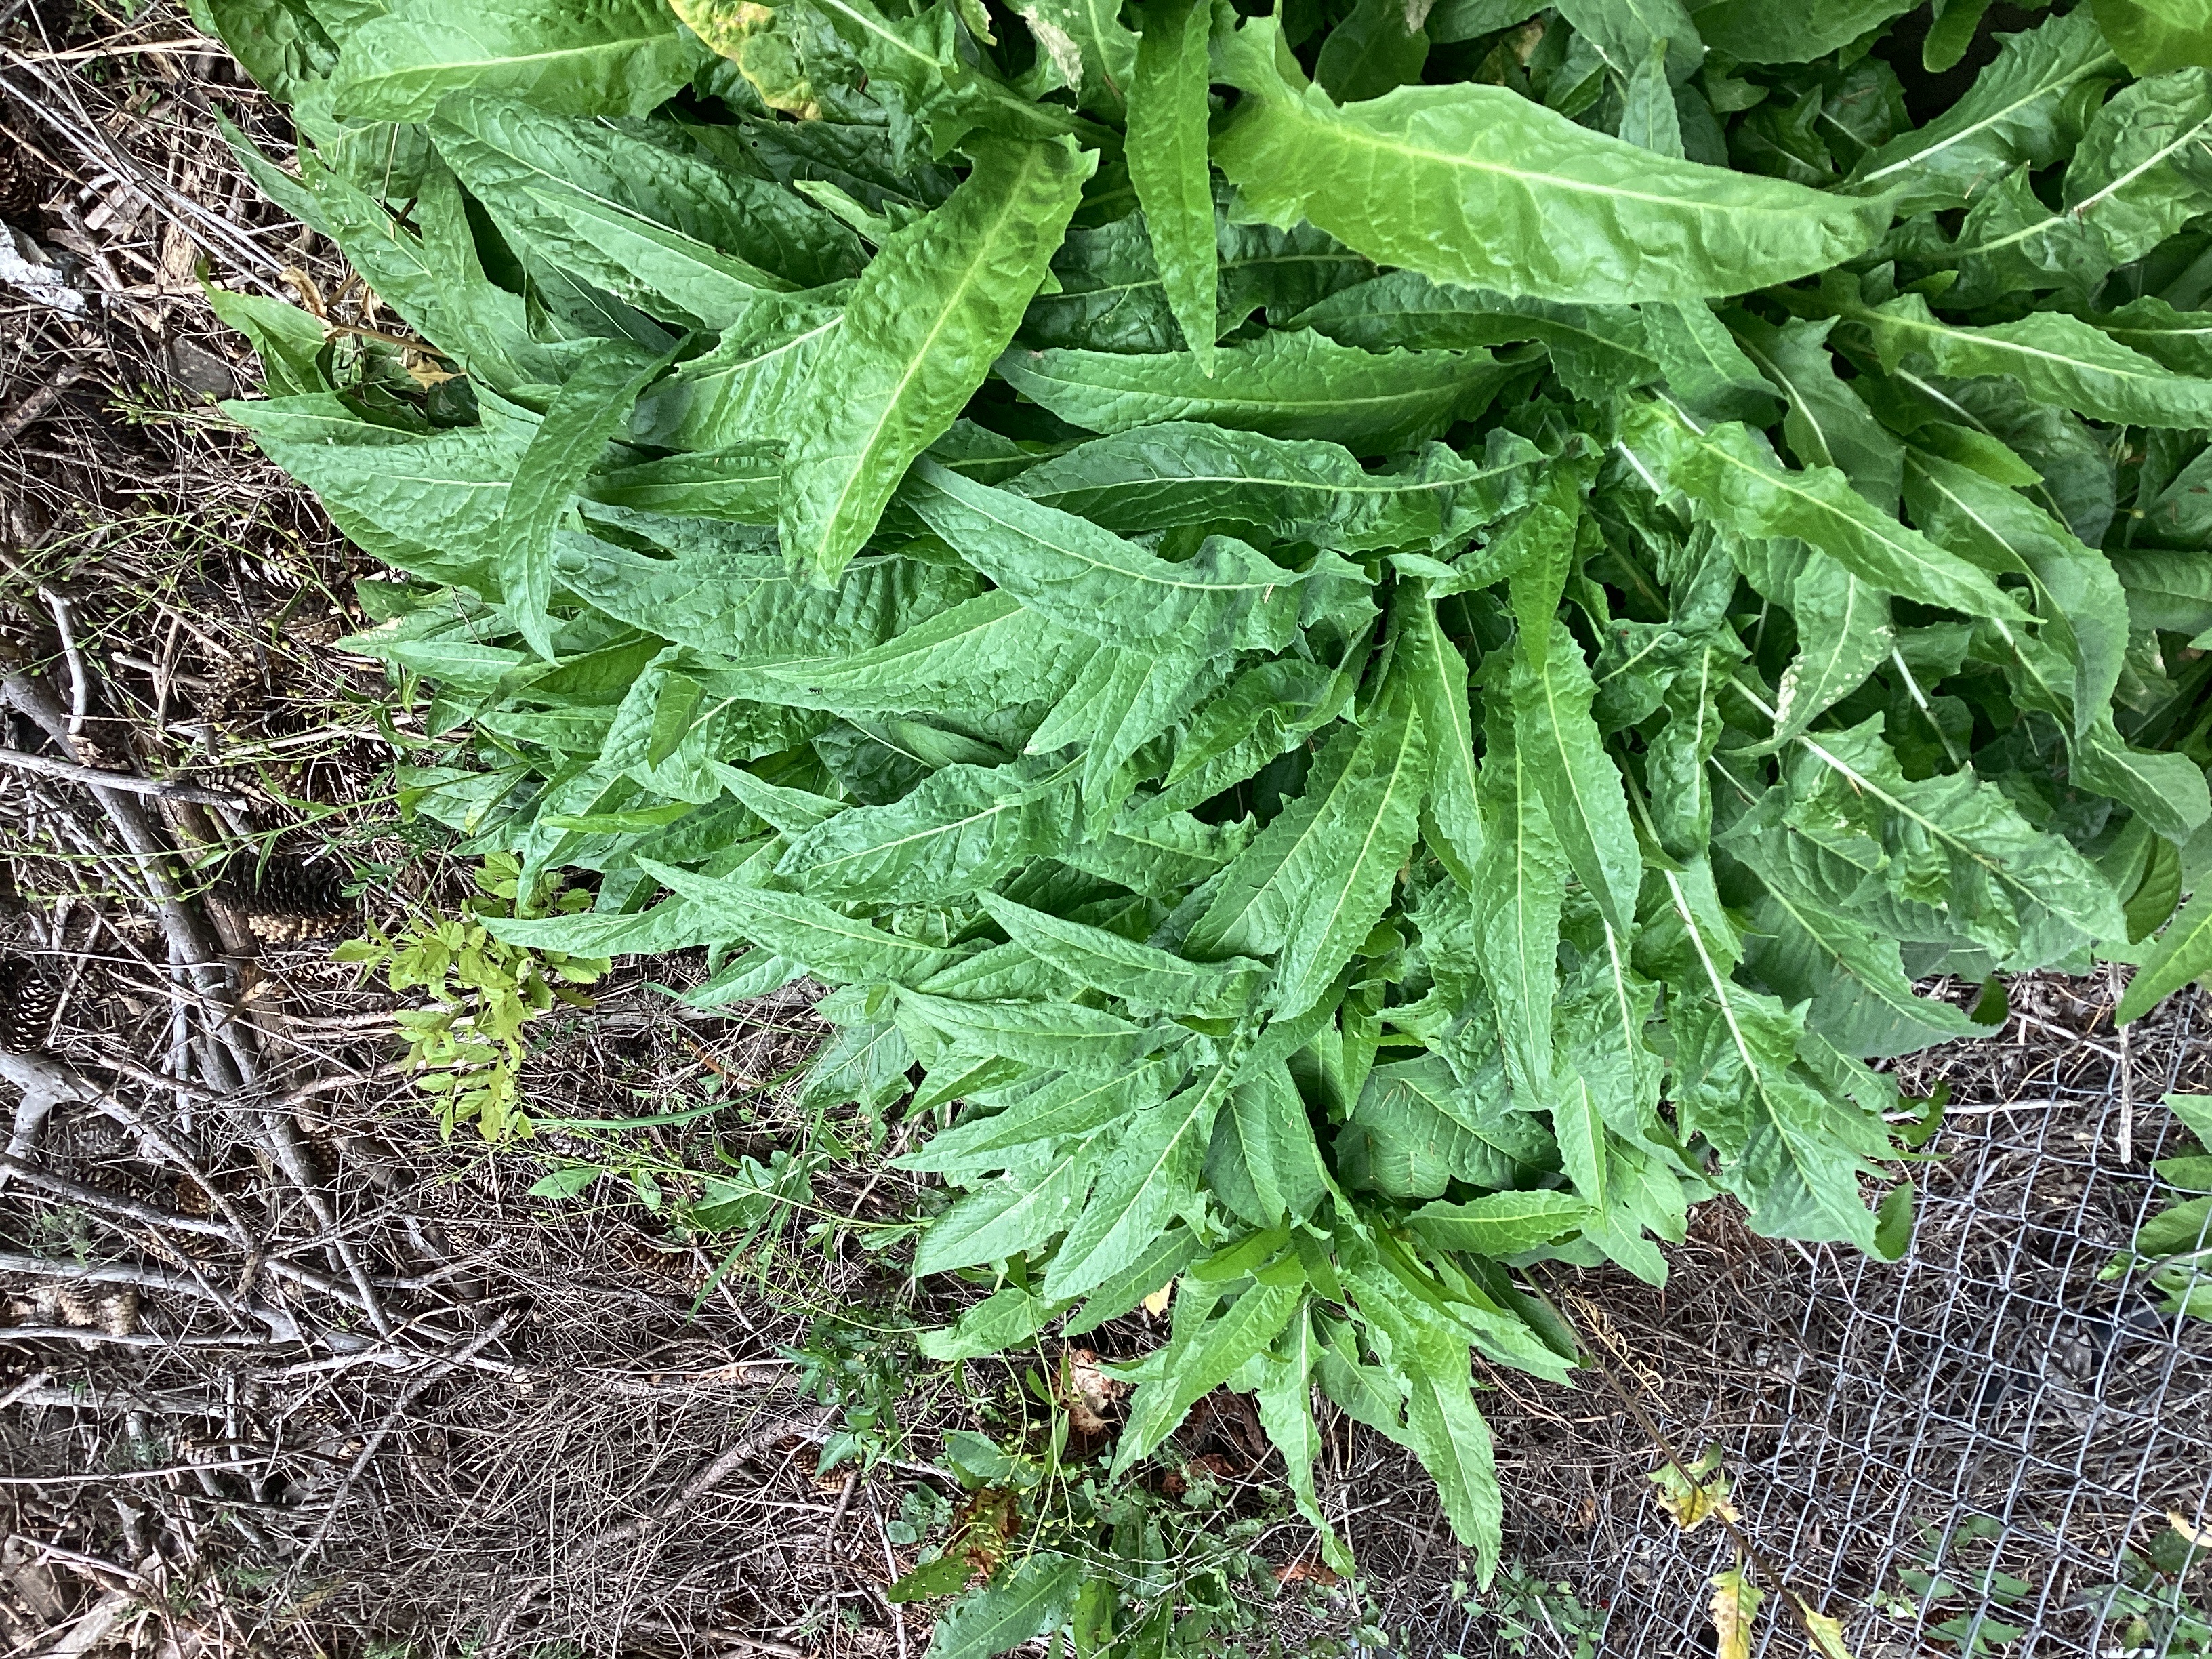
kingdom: Plantae
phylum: Tracheophyta
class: Magnoliopsida
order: Brassicales
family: Brassicaceae
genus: Bunias
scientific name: Bunias orientalis
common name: russekål
